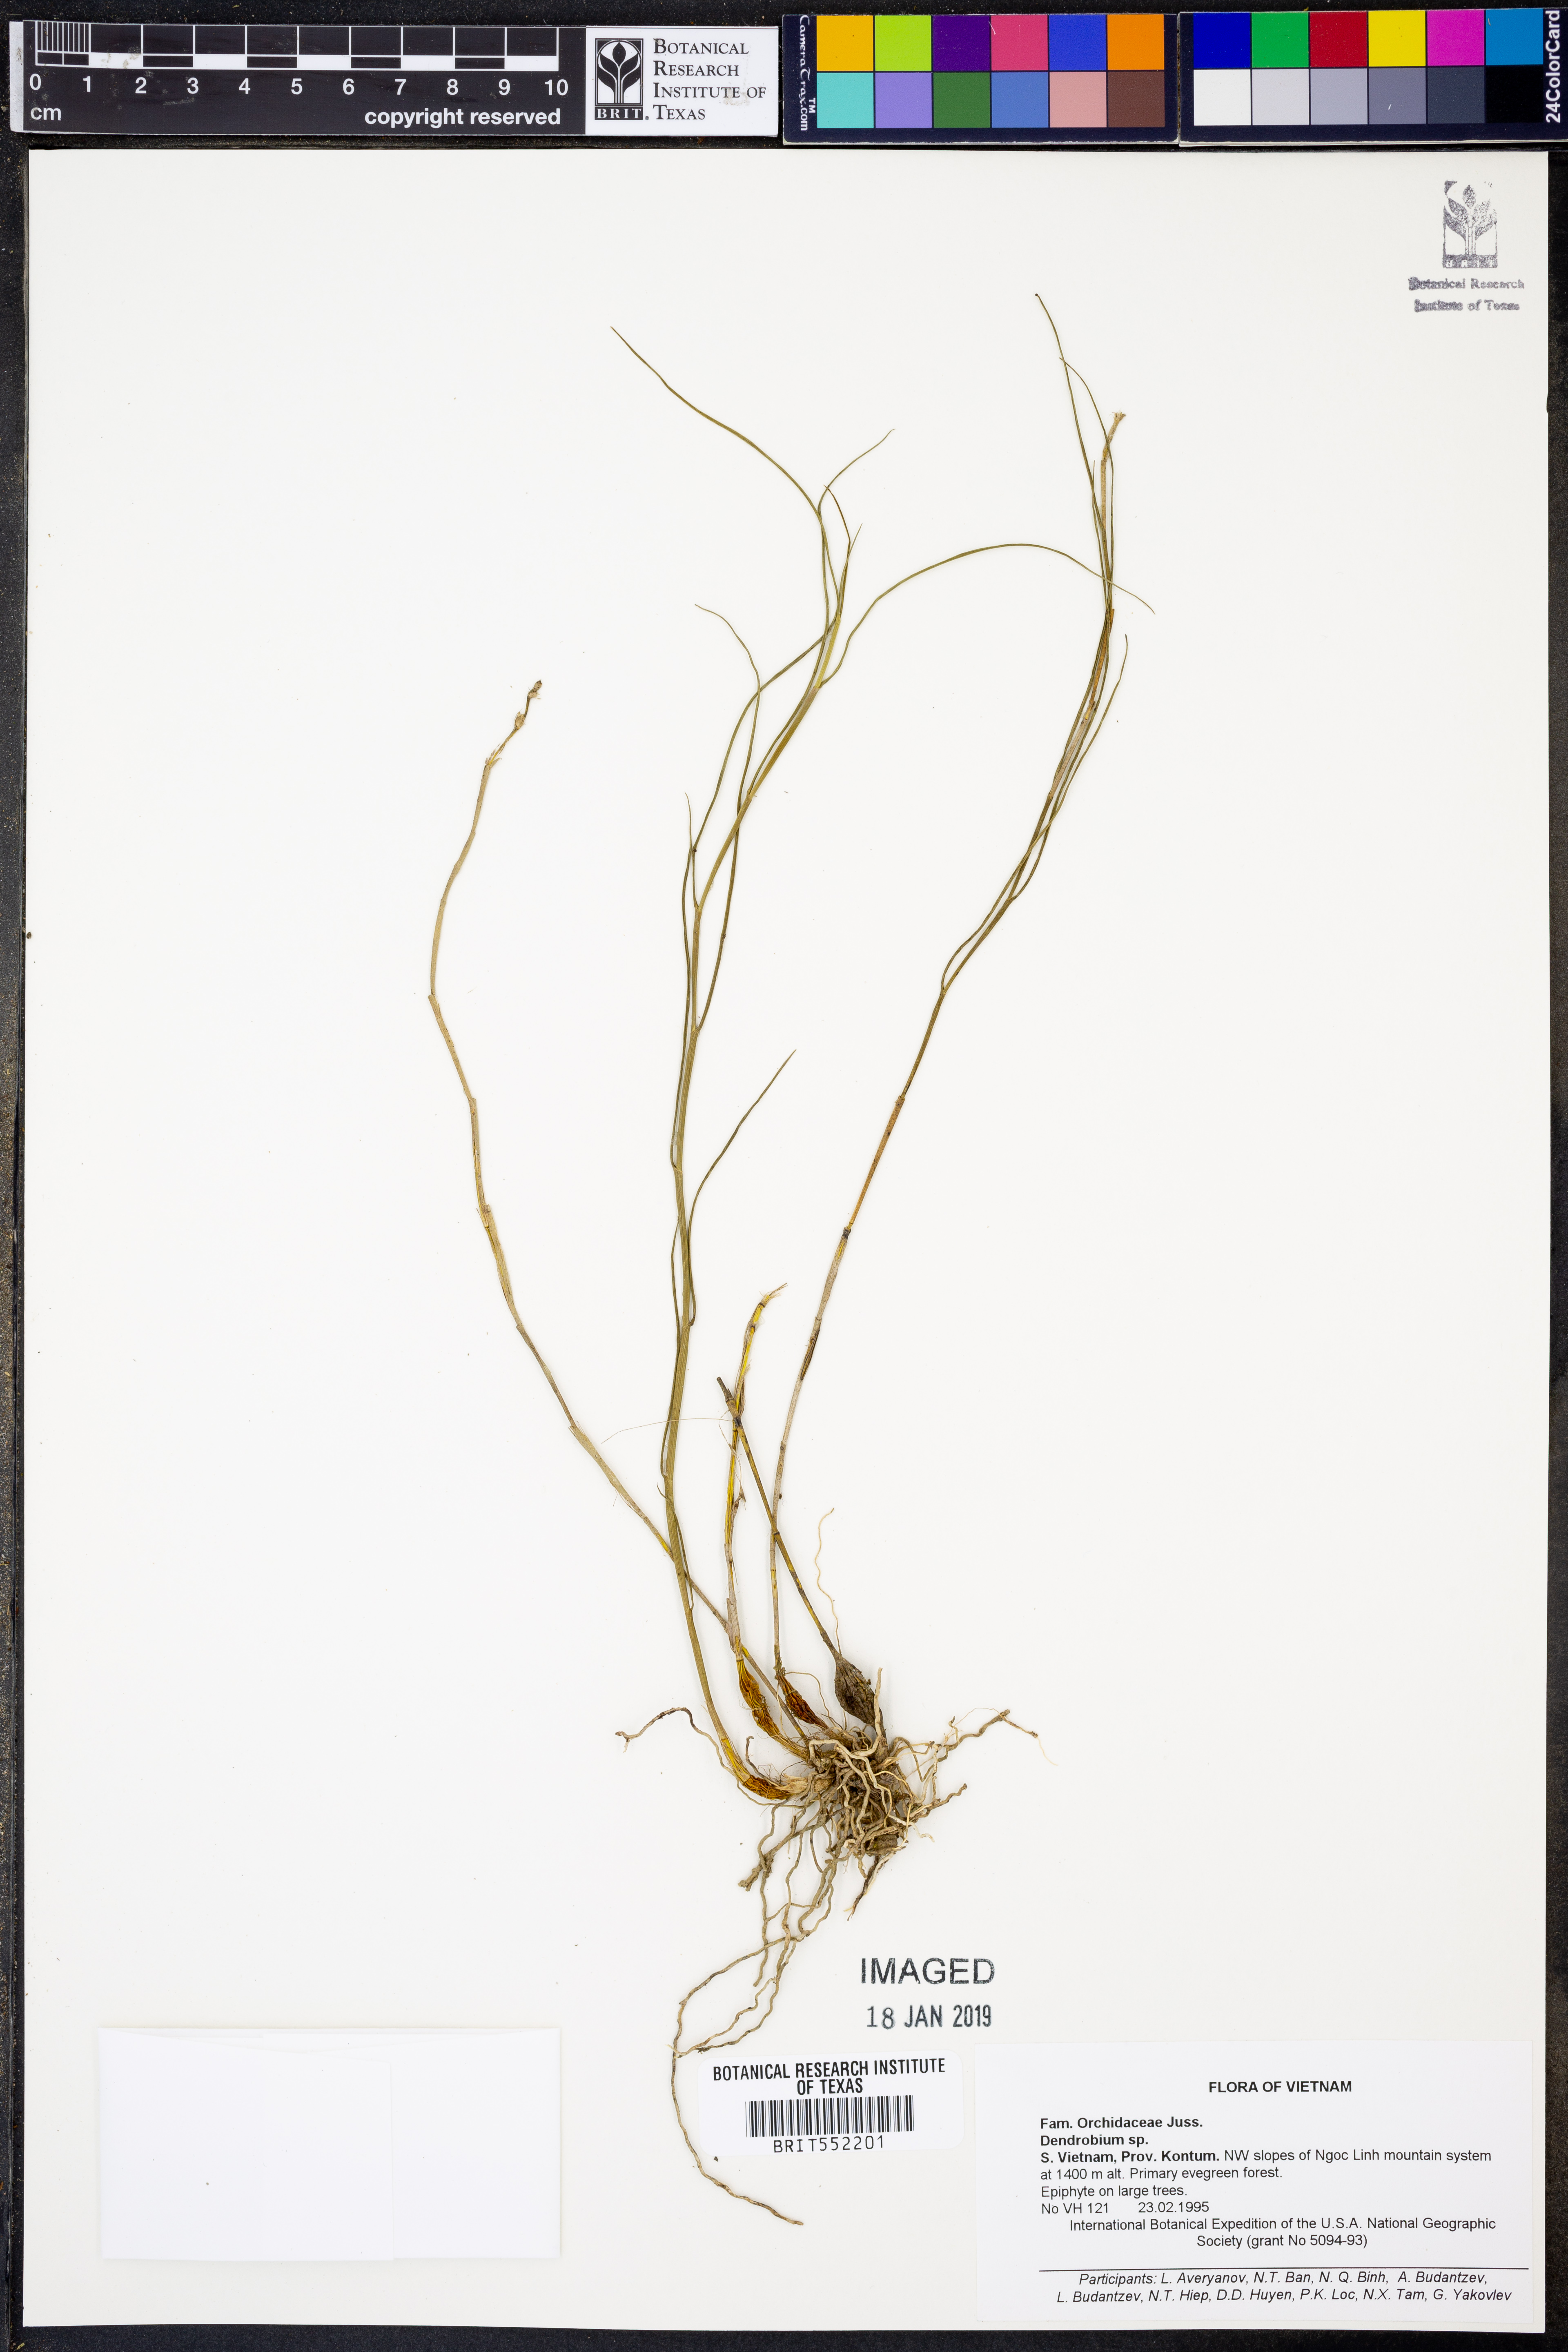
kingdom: Plantae
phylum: Tracheophyta
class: Liliopsida
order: Asparagales
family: Orchidaceae
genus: Dendrobium
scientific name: Dendrobium
